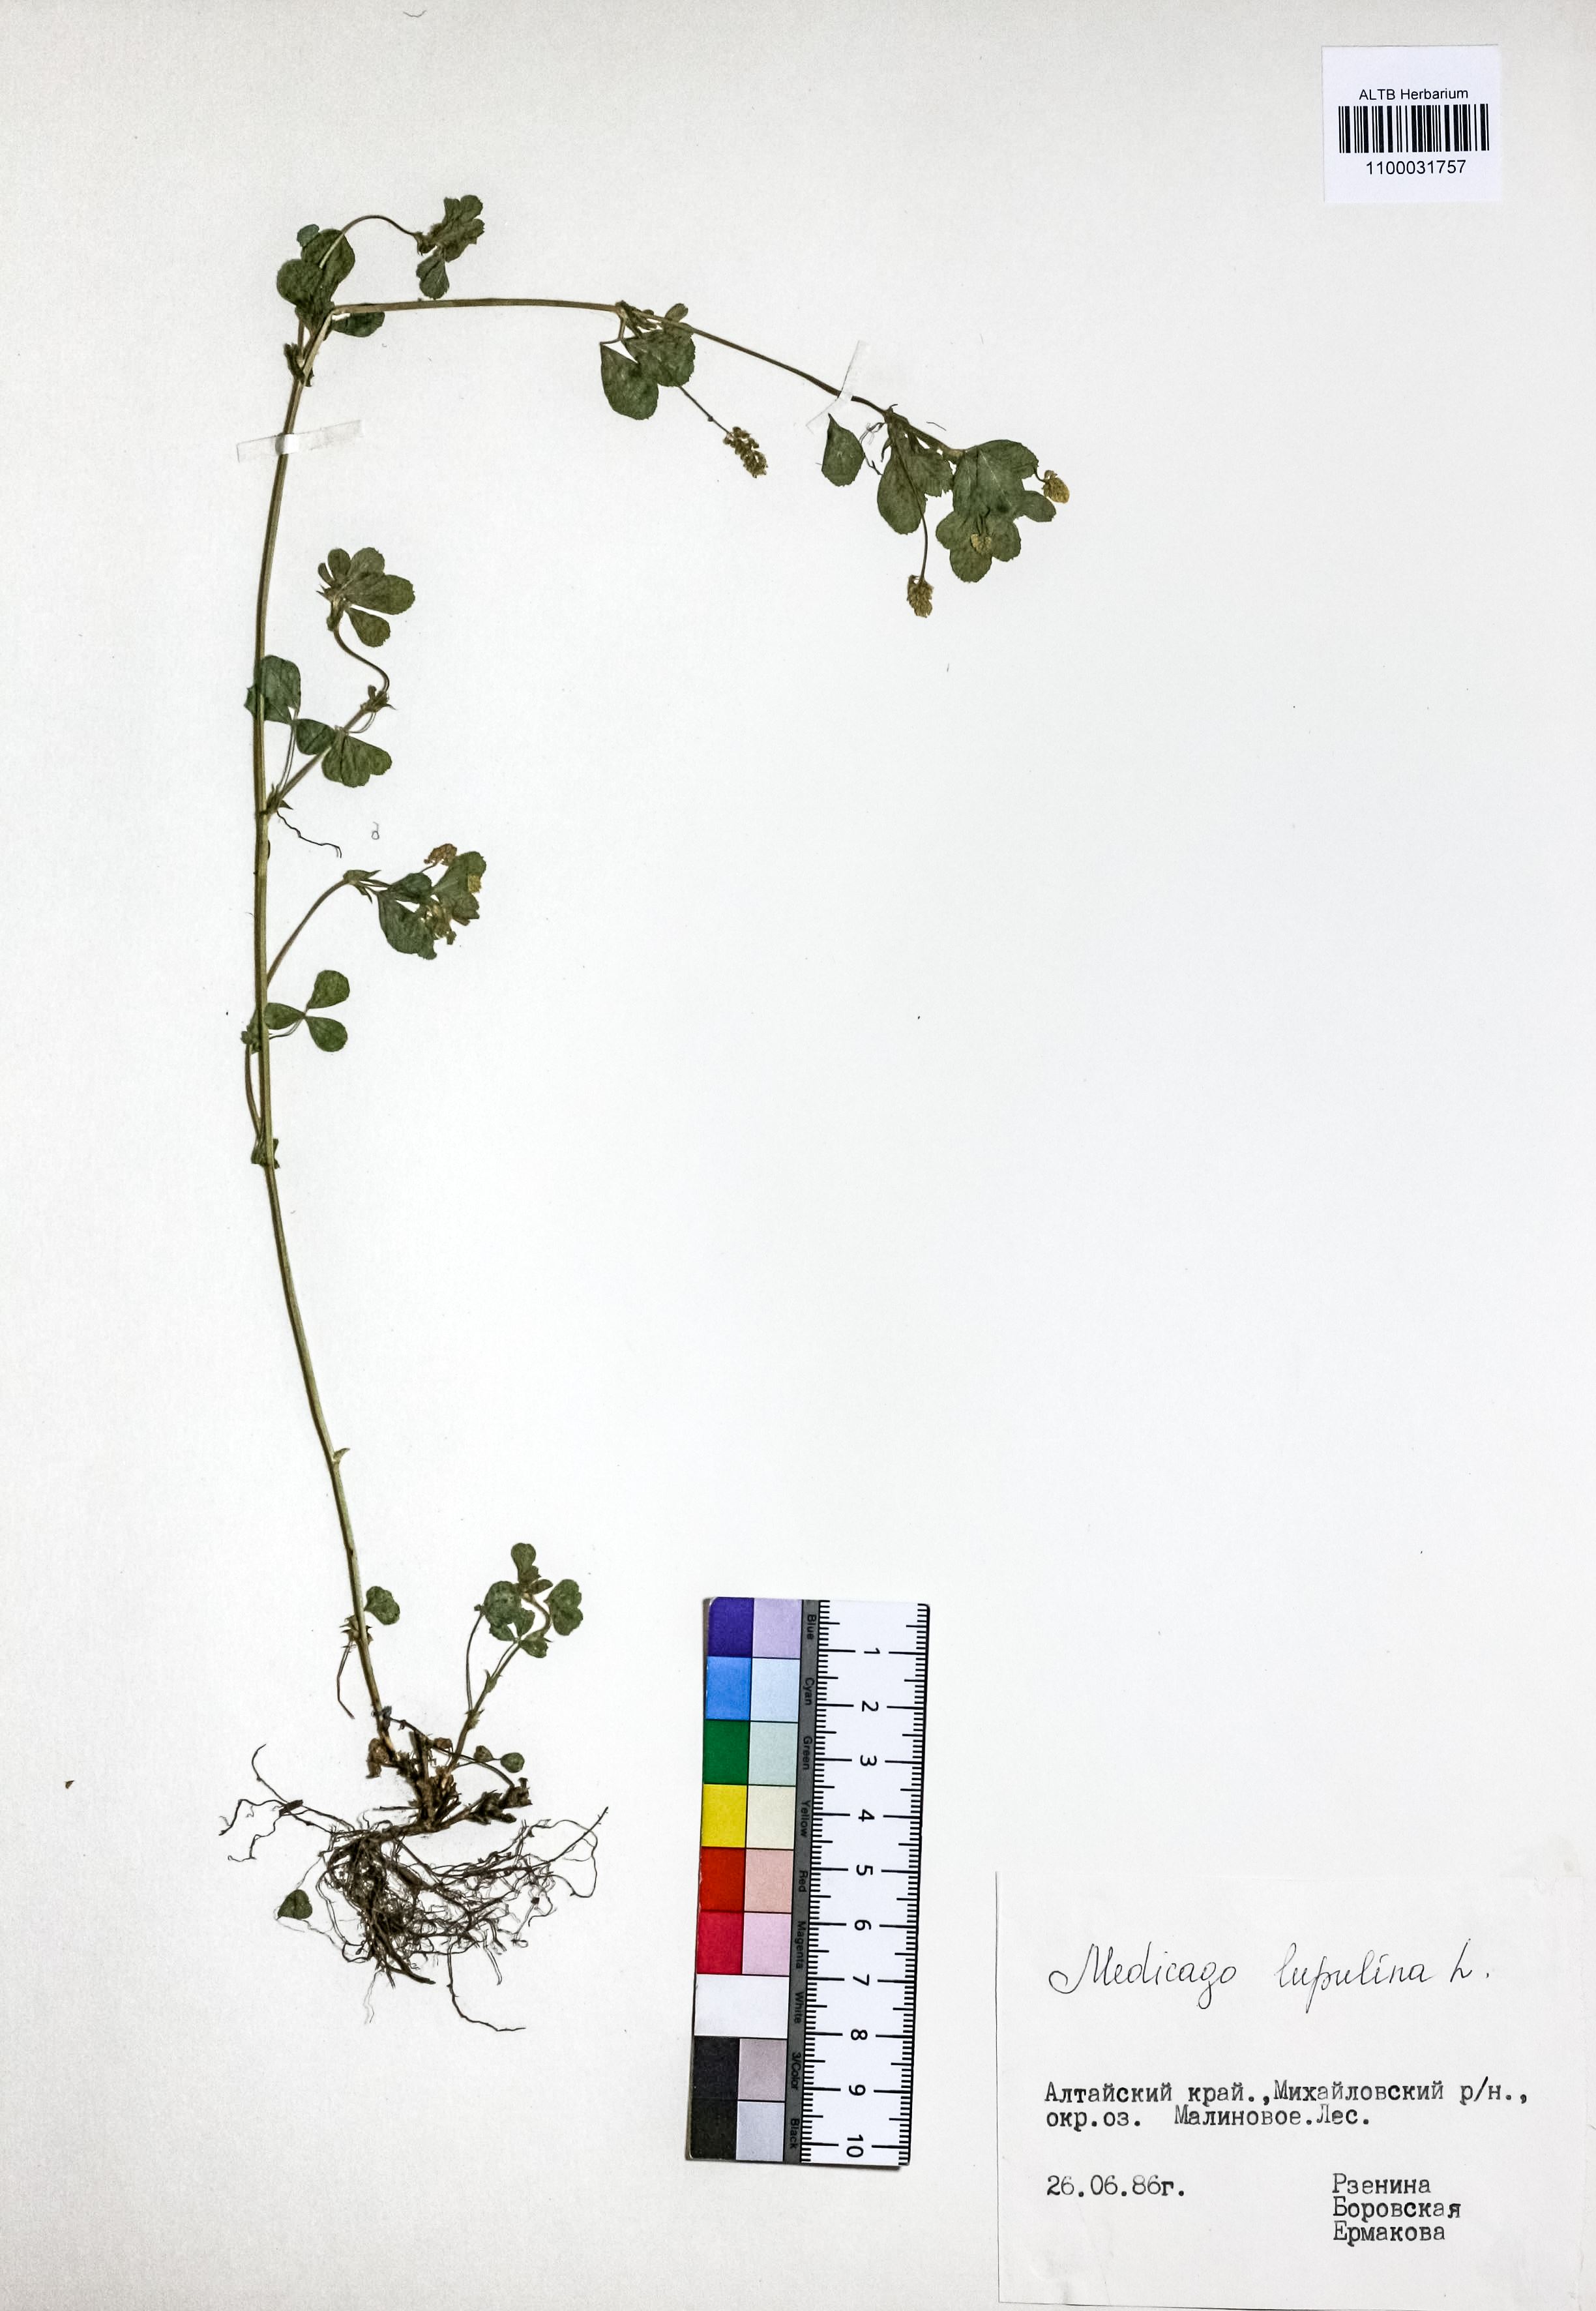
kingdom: Plantae
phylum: Tracheophyta
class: Magnoliopsida
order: Fabales
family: Fabaceae
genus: Medicago
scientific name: Medicago lupulina
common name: Black medick
